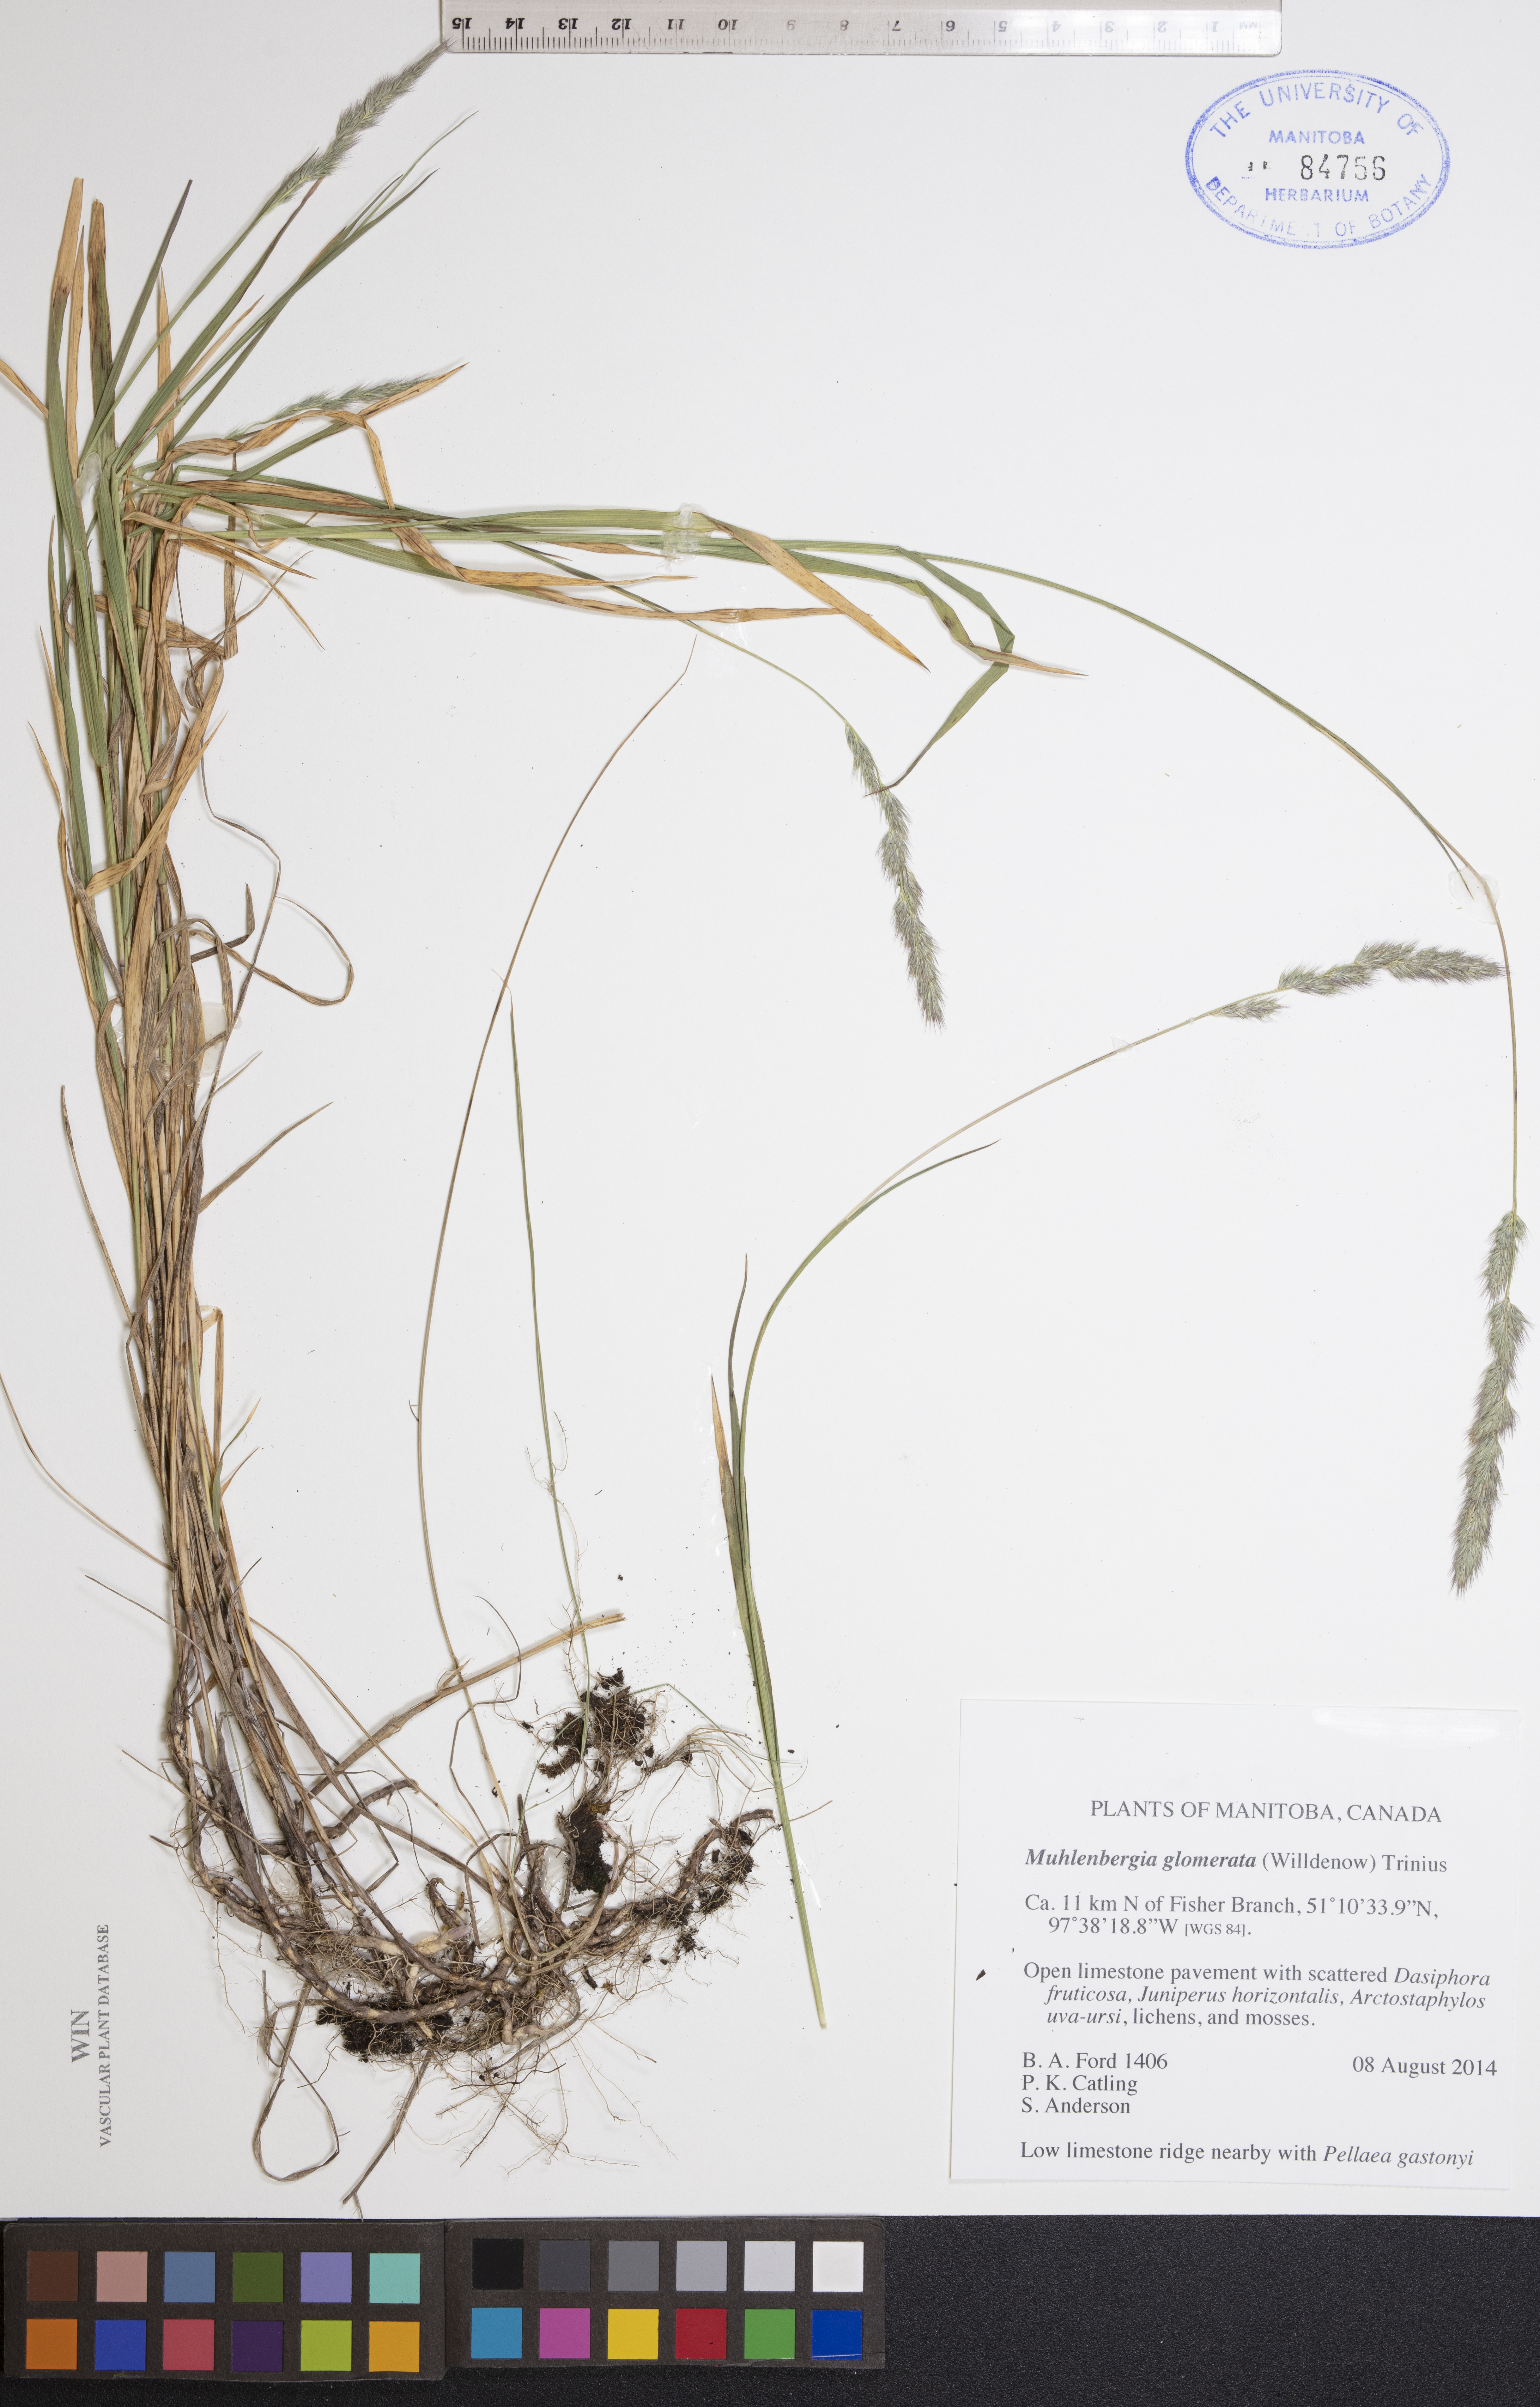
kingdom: Plantae
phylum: Tracheophyta
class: Liliopsida
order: Poales
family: Poaceae
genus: Muhlenbergia
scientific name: Muhlenbergia glomerata
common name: Bog muhly
